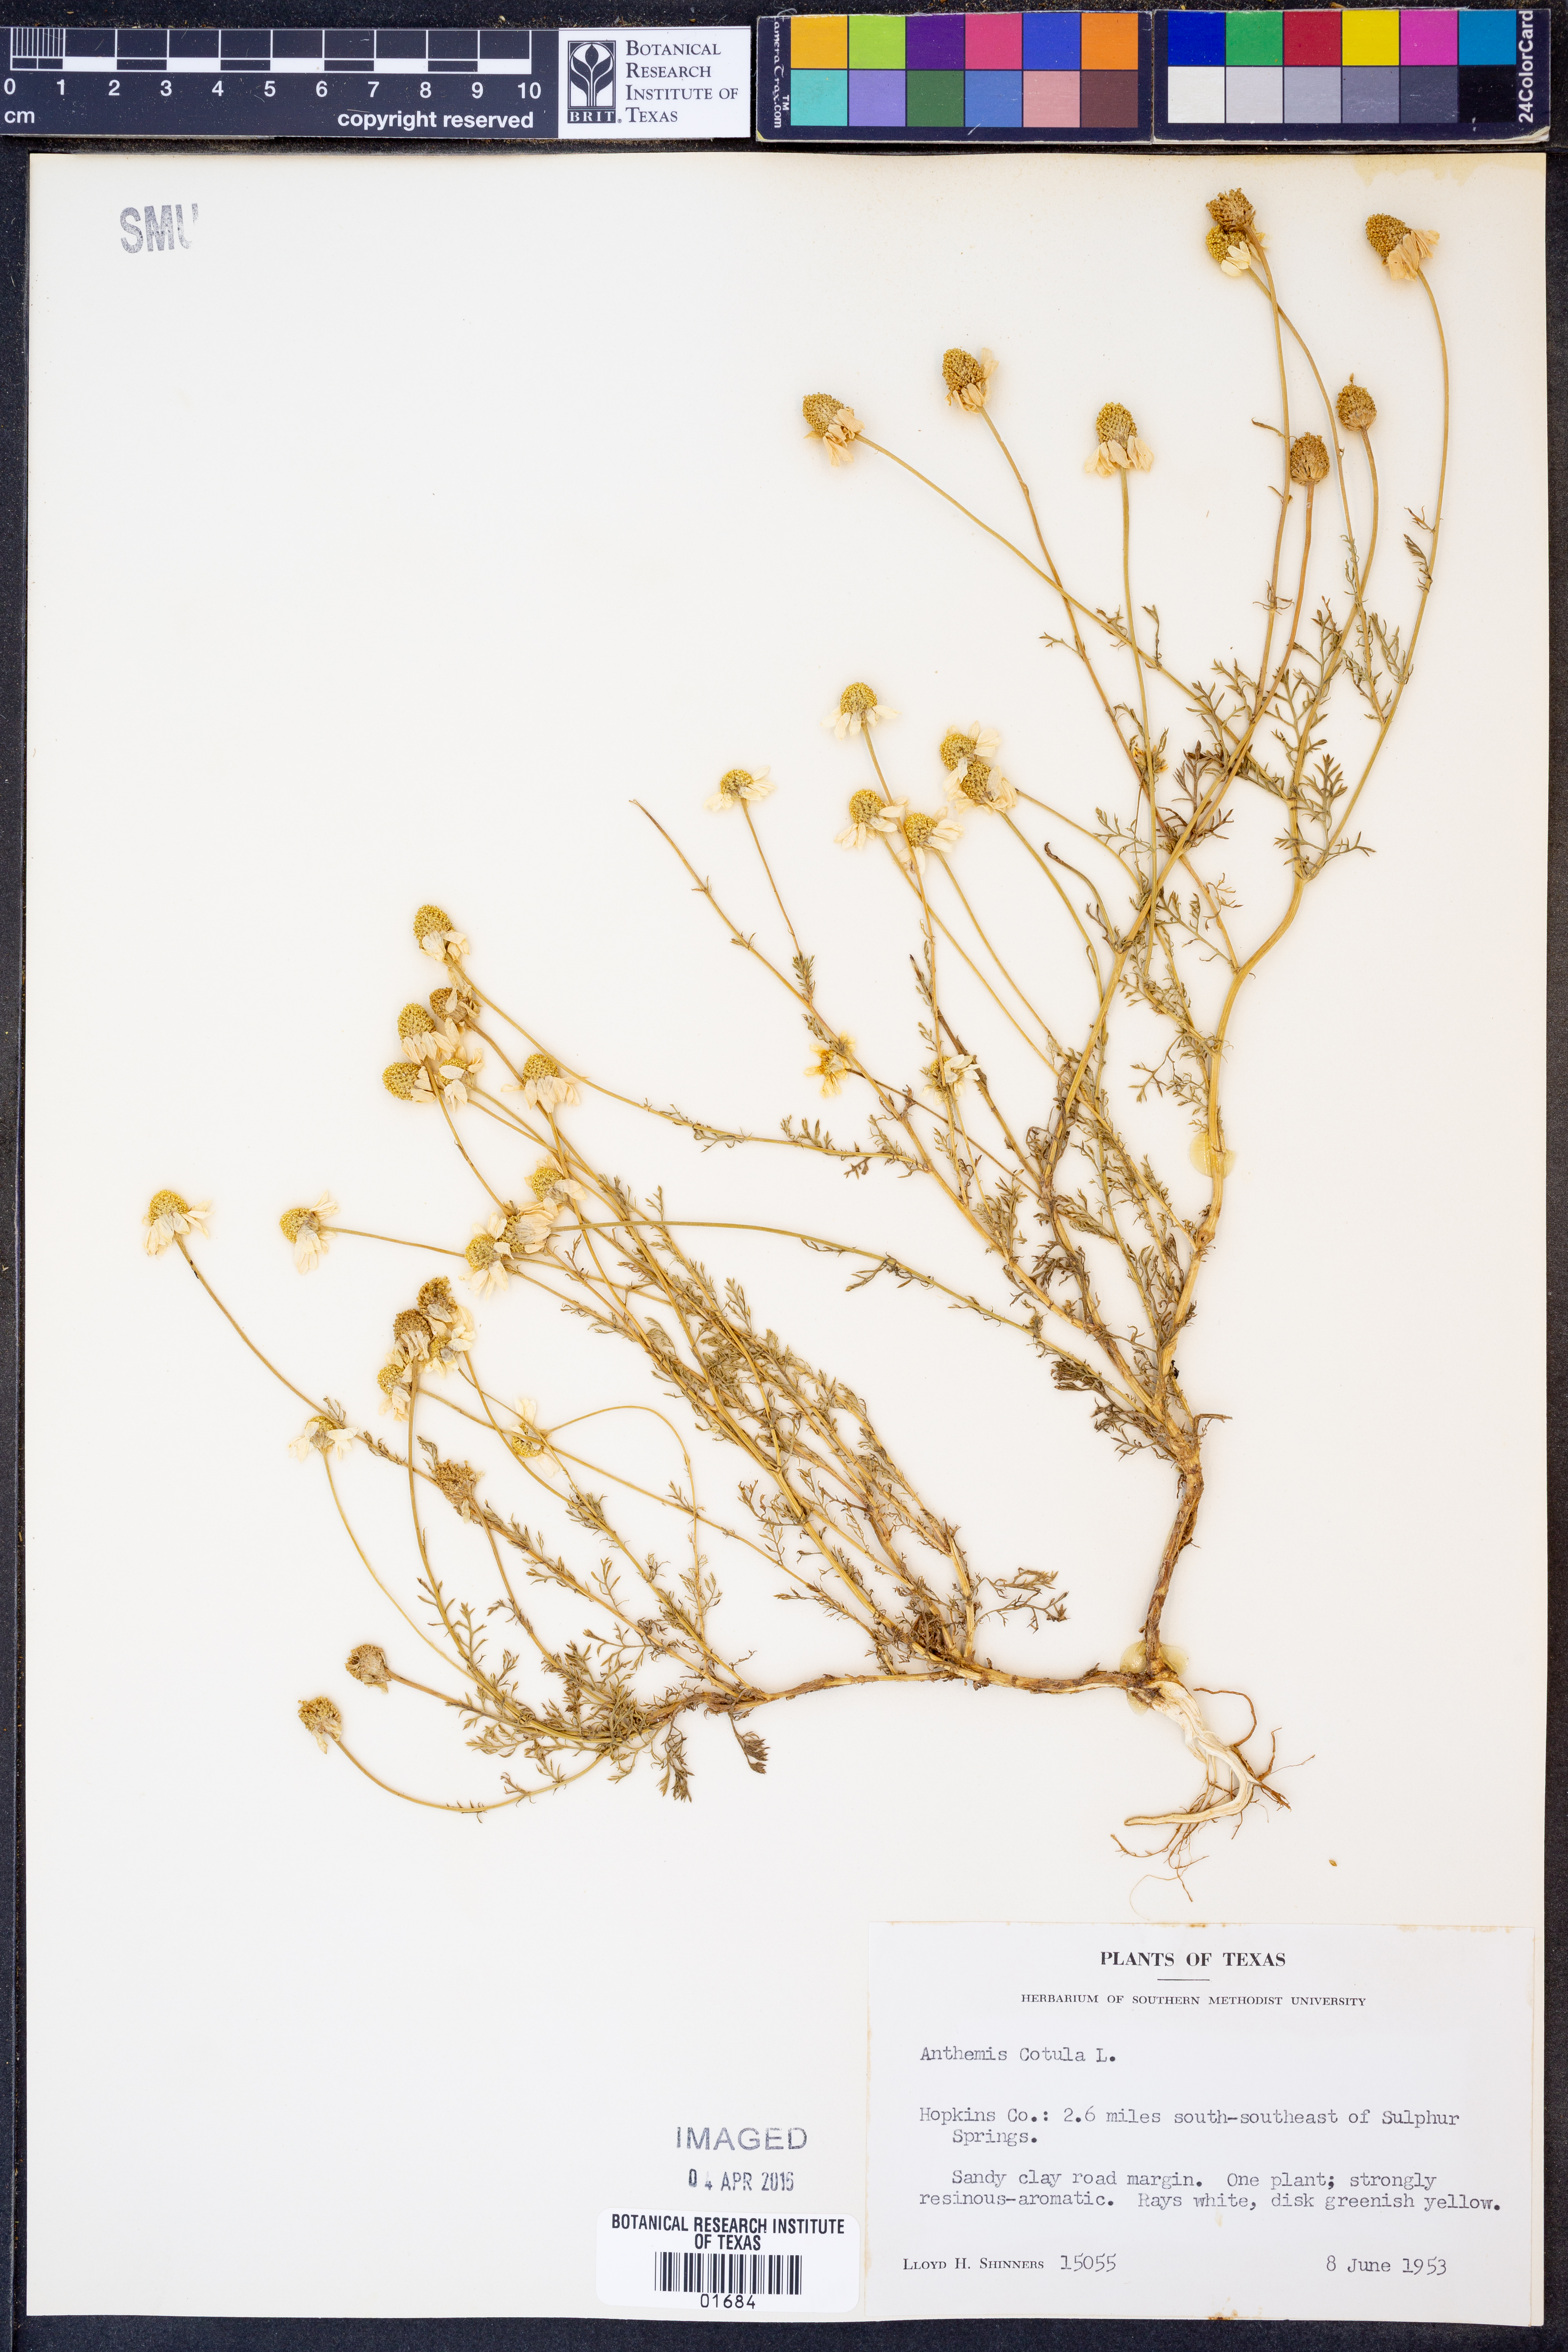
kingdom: Plantae
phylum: Tracheophyta
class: Magnoliopsida
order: Asterales
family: Asteraceae
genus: Anthemis
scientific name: Anthemis cotula
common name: Stinking chamomile
